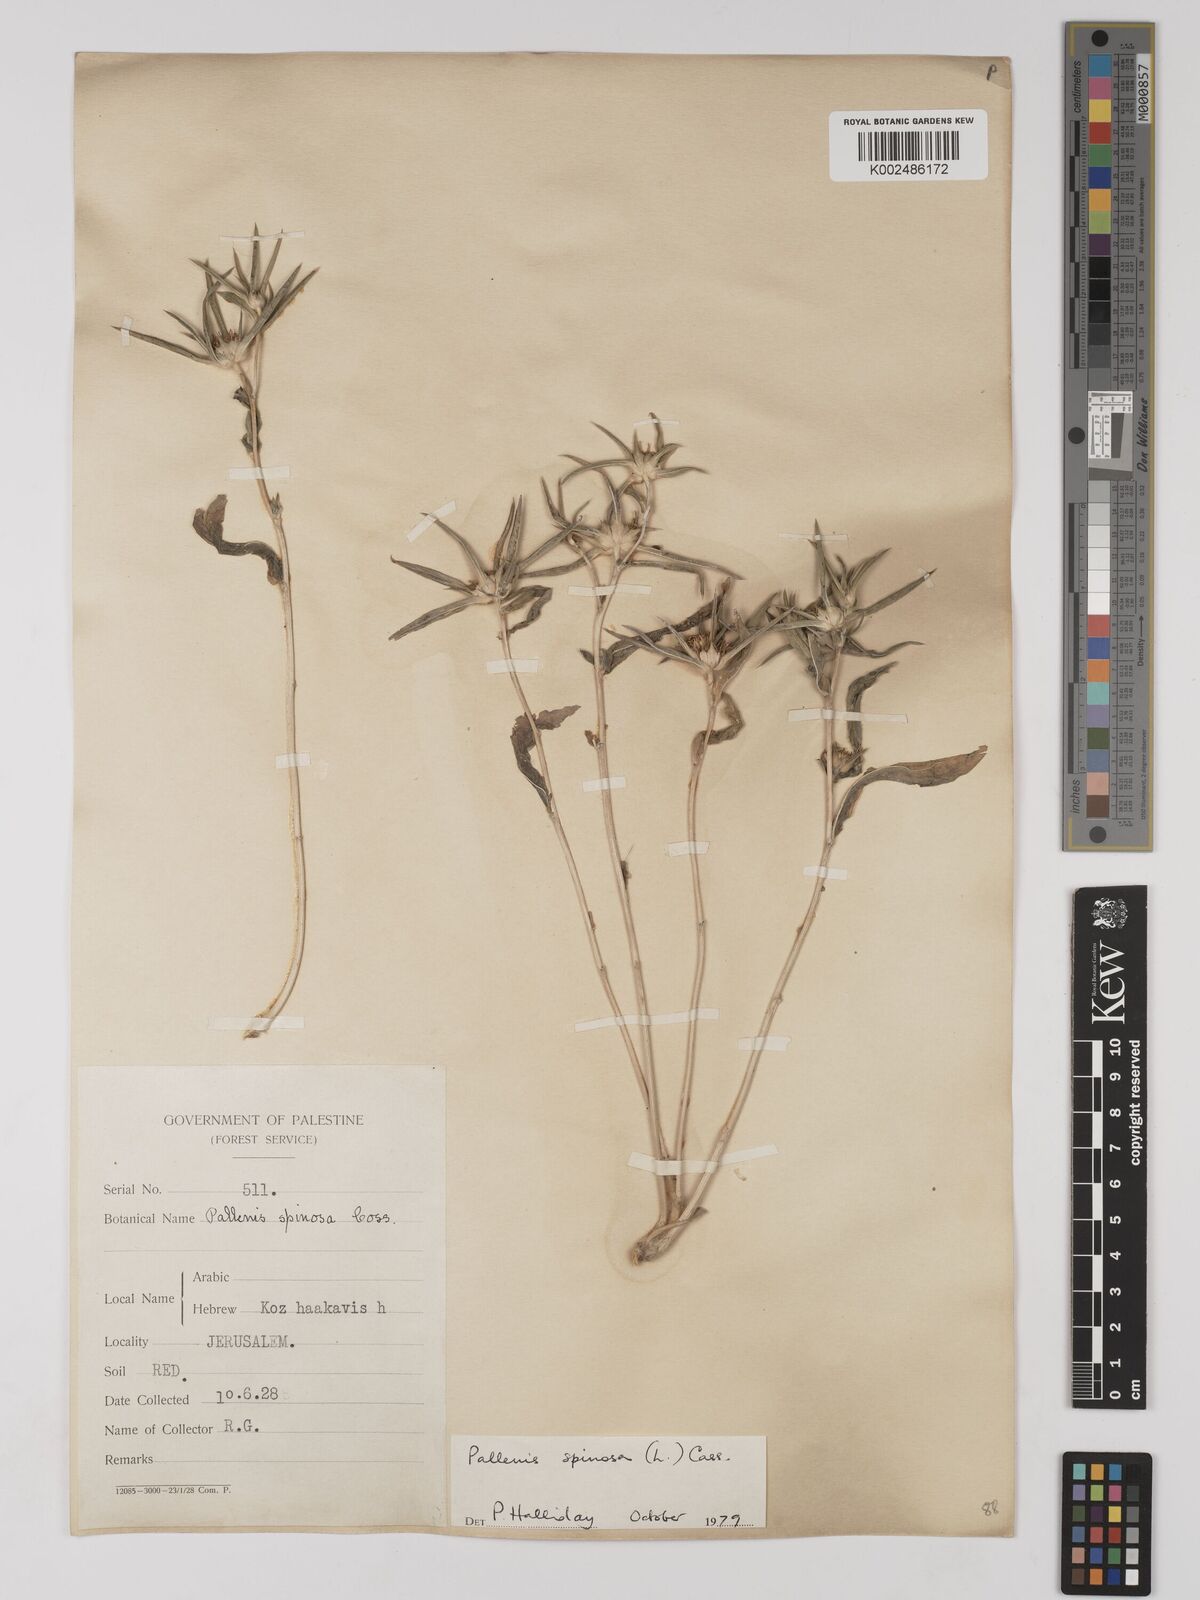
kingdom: Plantae
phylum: Tracheophyta
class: Magnoliopsida
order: Asterales
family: Asteraceae
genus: Pallenis
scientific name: Pallenis spinosa
